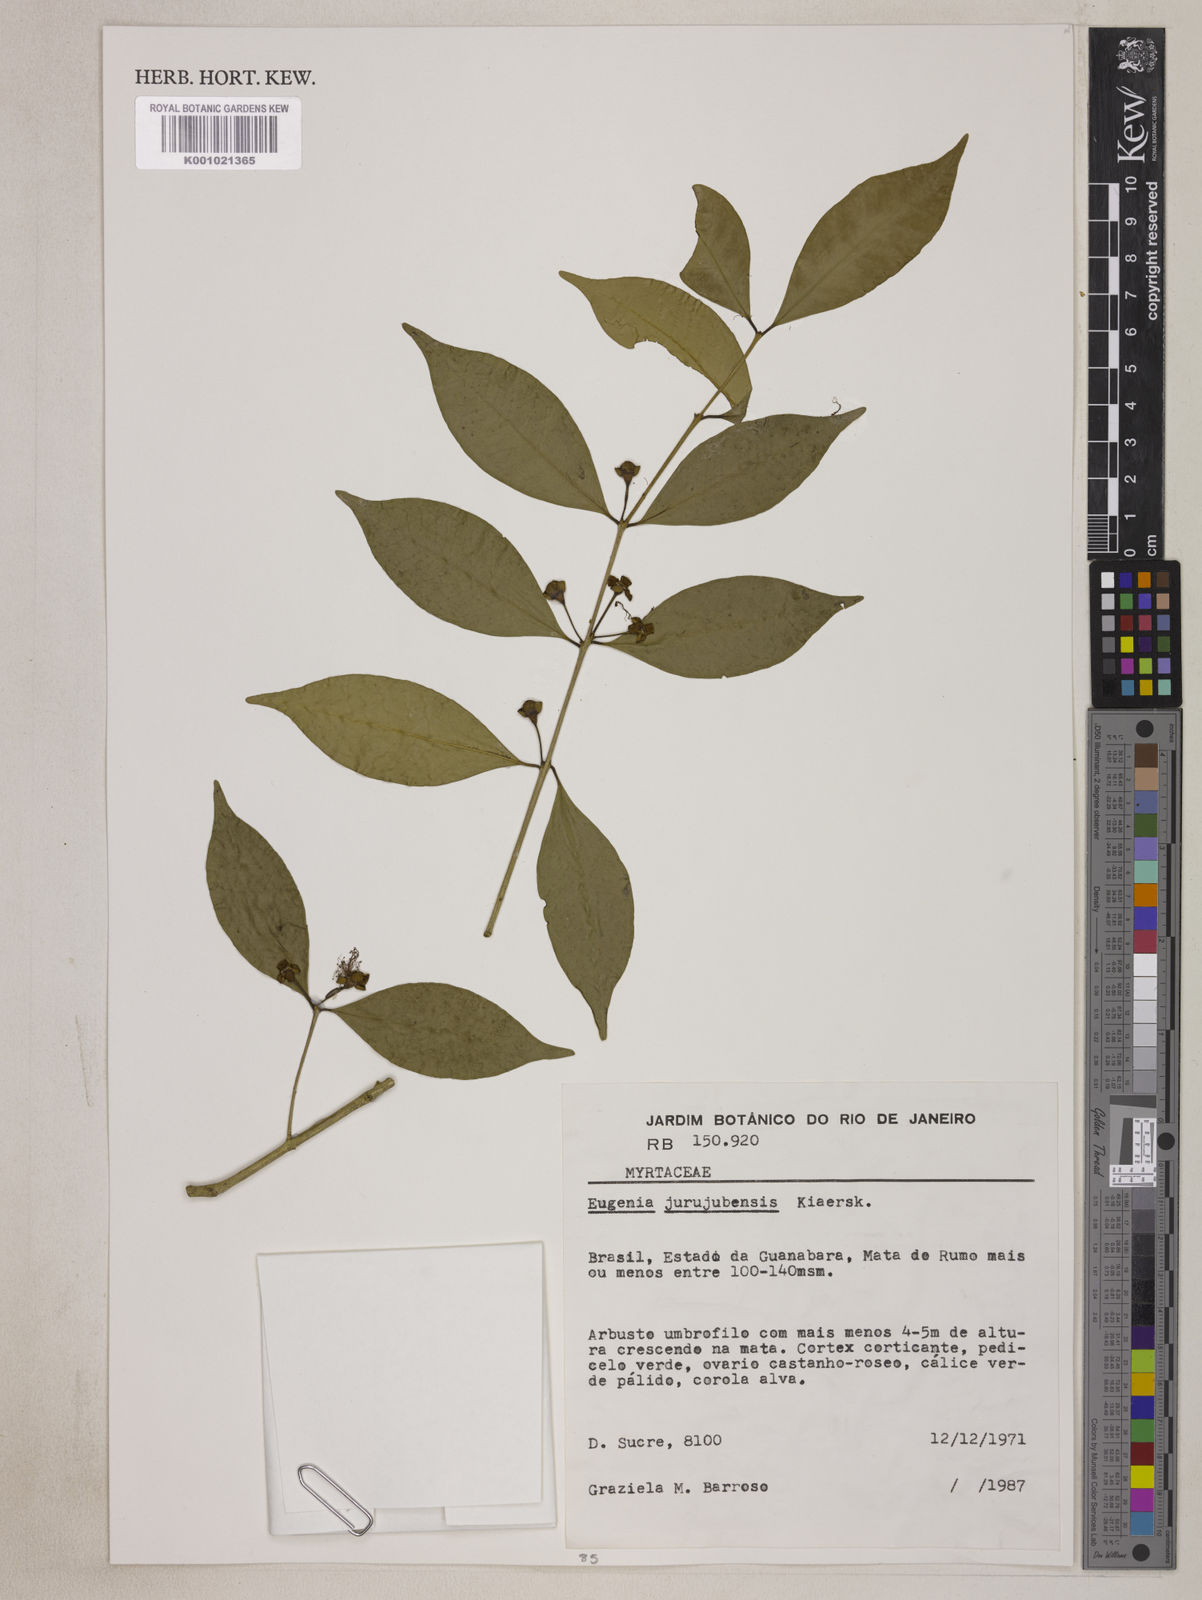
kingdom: Plantae
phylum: Tracheophyta
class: Magnoliopsida
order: Myrtales
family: Myrtaceae
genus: Eugenia
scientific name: Eugenia prasina
